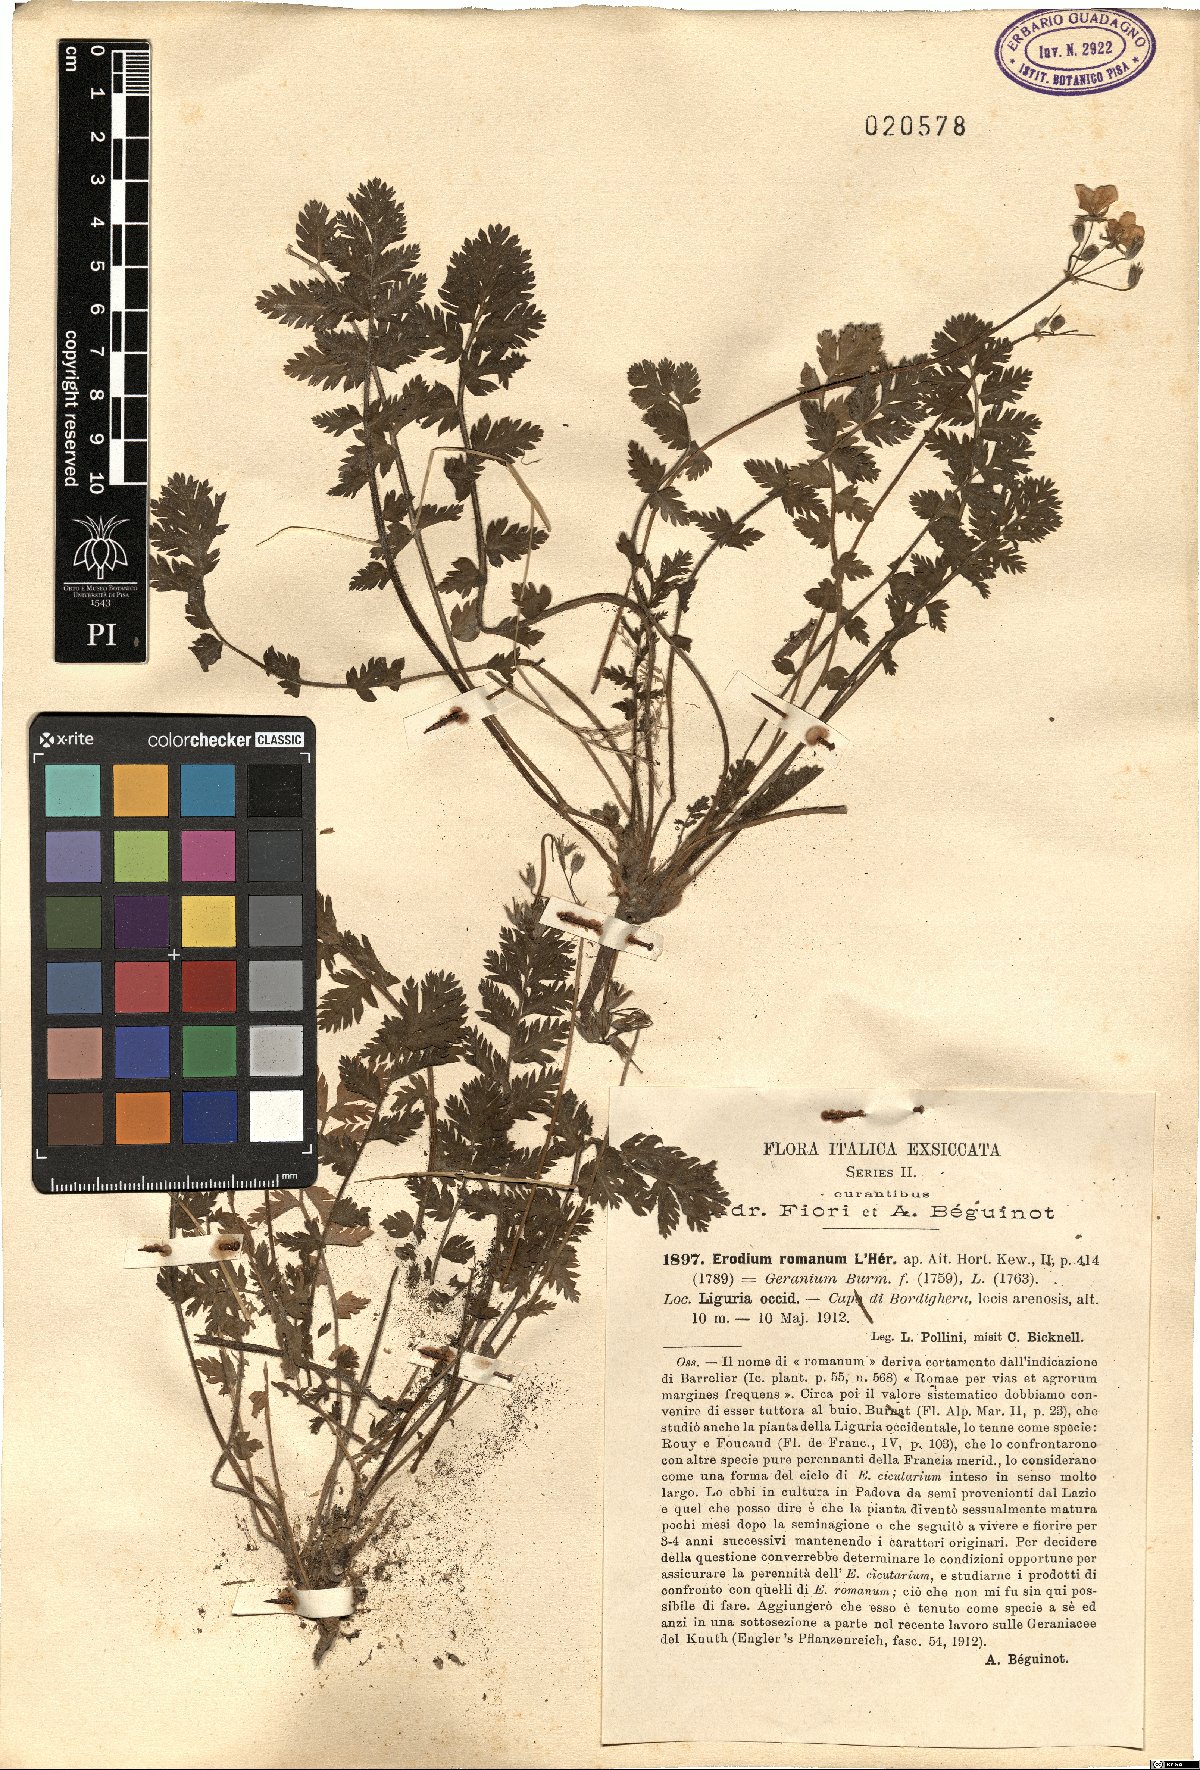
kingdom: Plantae
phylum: Tracheophyta
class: Magnoliopsida
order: Geraniales
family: Geraniaceae
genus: Erodium
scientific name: Erodium acaule
